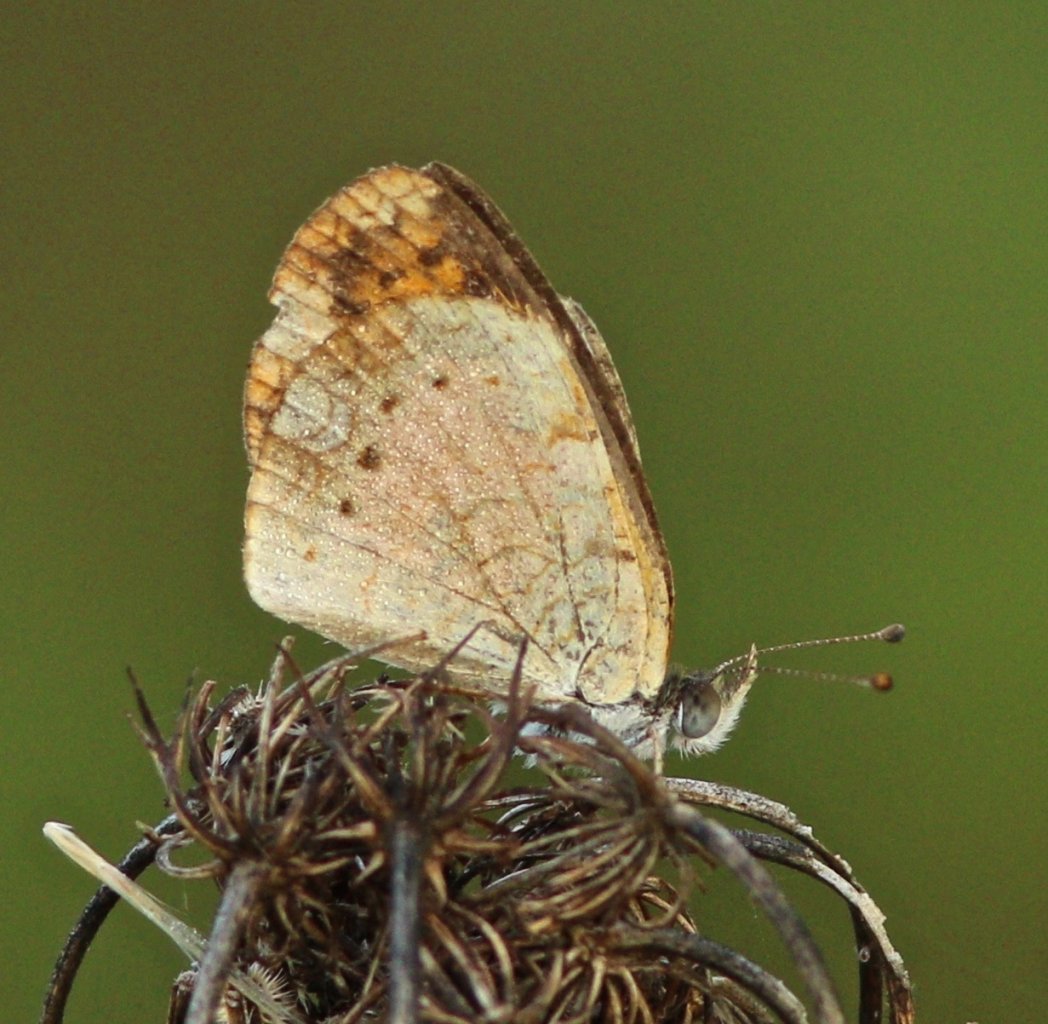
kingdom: Animalia
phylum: Arthropoda
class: Insecta
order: Lepidoptera
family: Nymphalidae
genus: Phyciodes
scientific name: Phyciodes tharos
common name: Pearl Crescent
